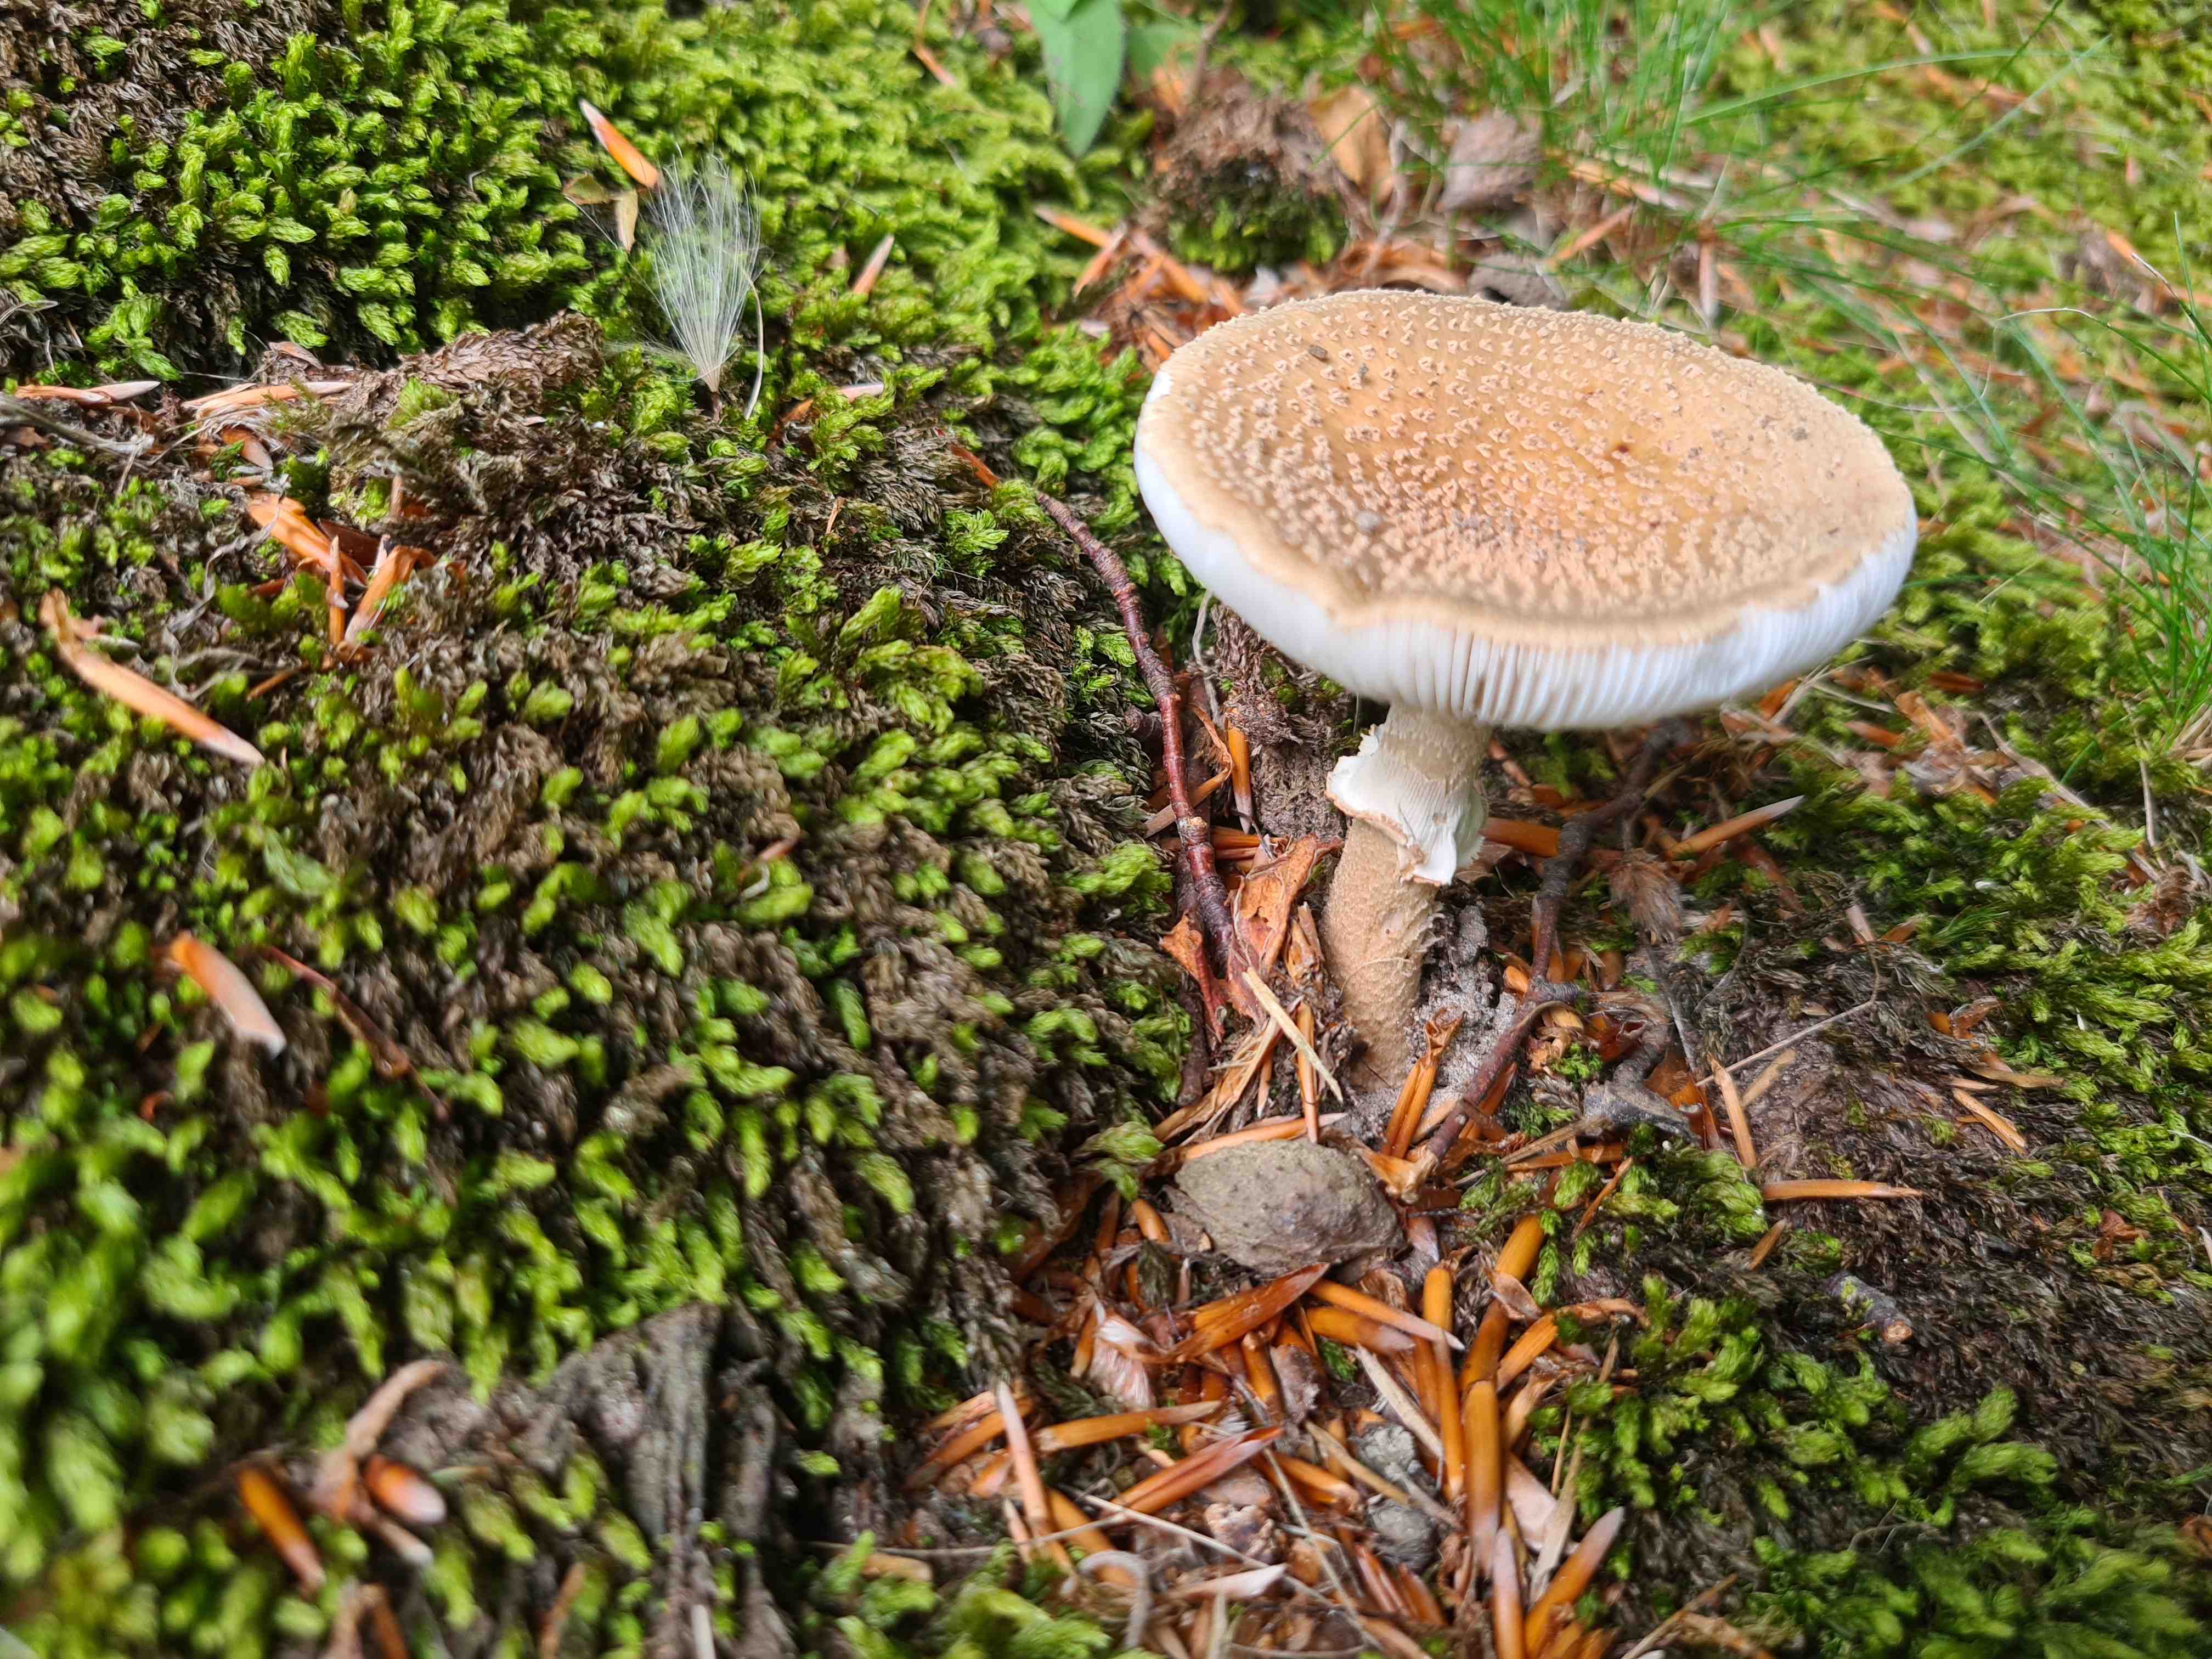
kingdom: Fungi
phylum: Basidiomycota
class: Agaricomycetes
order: Agaricales
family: Amanitaceae
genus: Amanita
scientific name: Amanita rubescens
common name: rødmende fluesvamp
